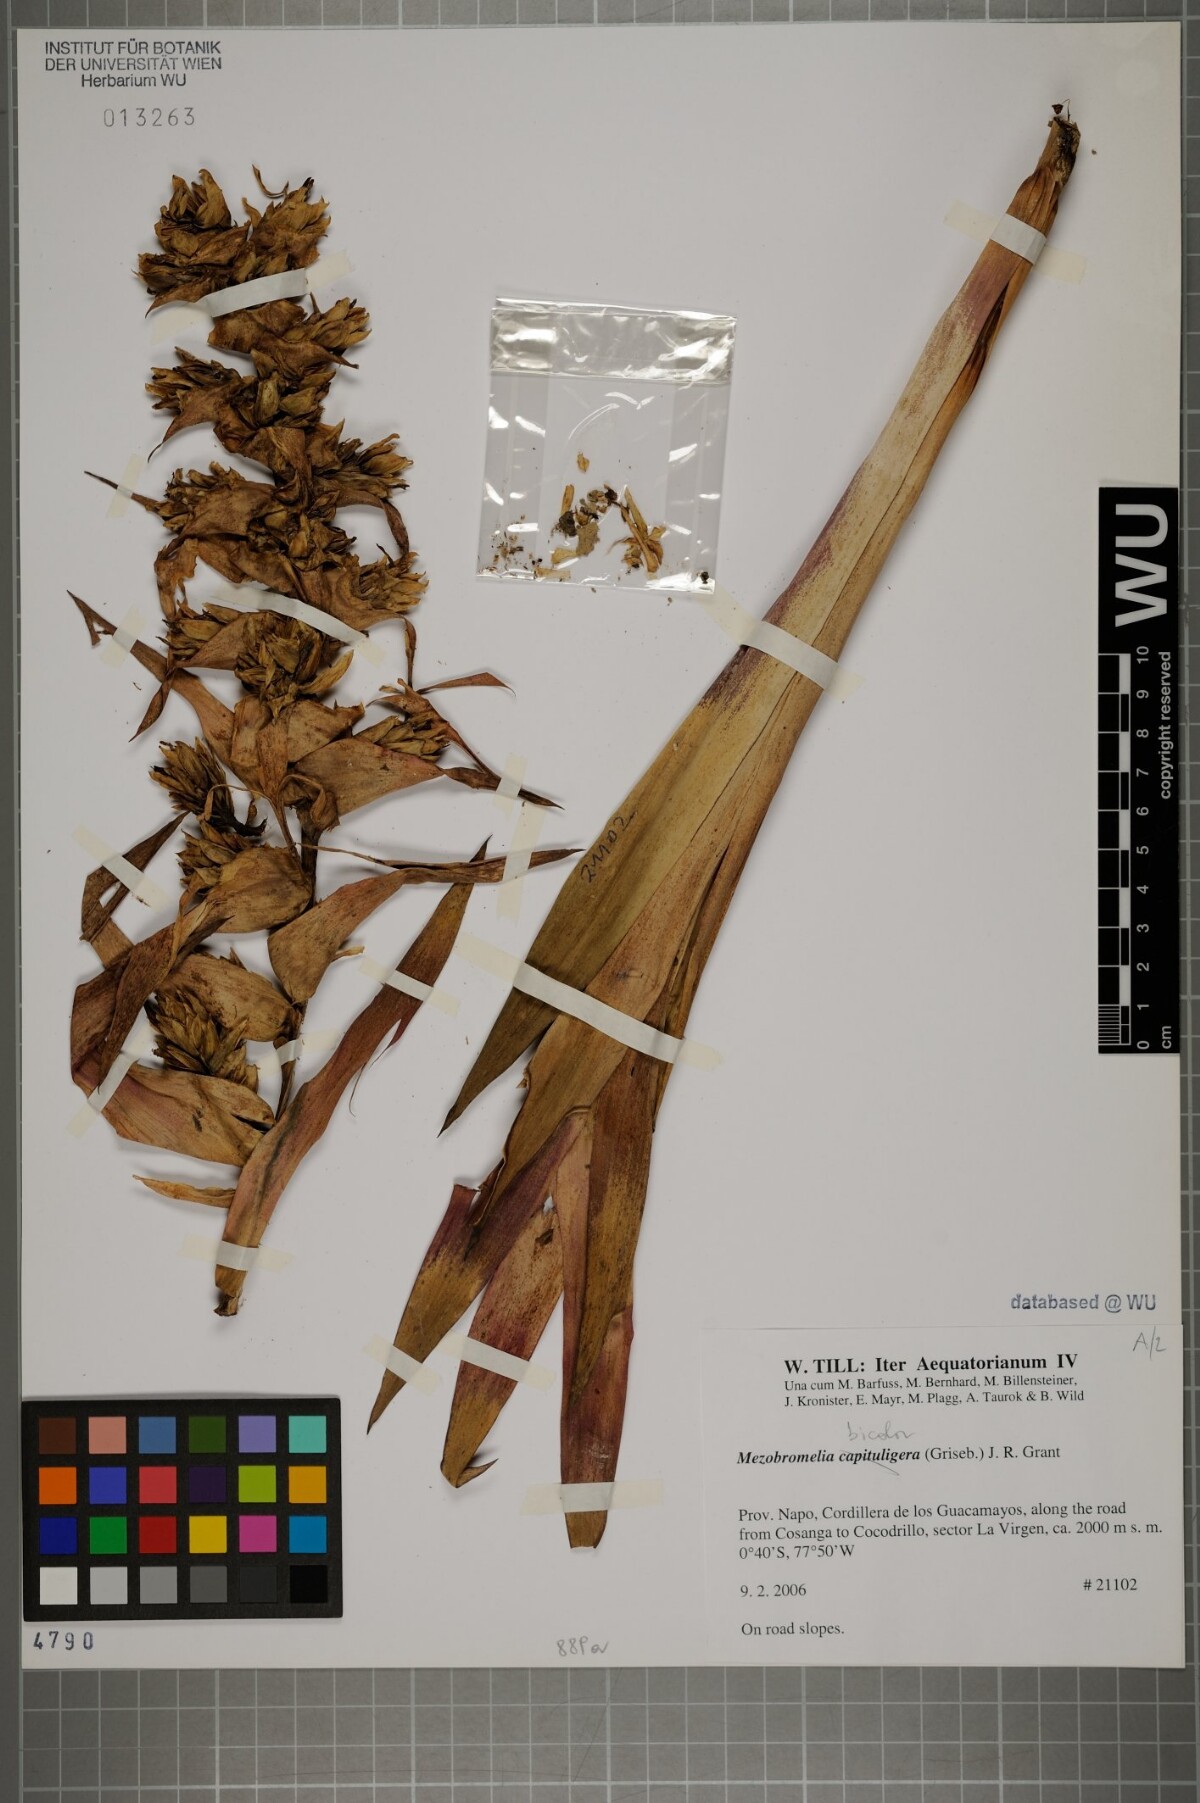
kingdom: Plantae
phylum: Tracheophyta
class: Liliopsida
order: Poales
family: Bromeliaceae
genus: Cipuropsis
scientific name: Cipuropsis bicolor
